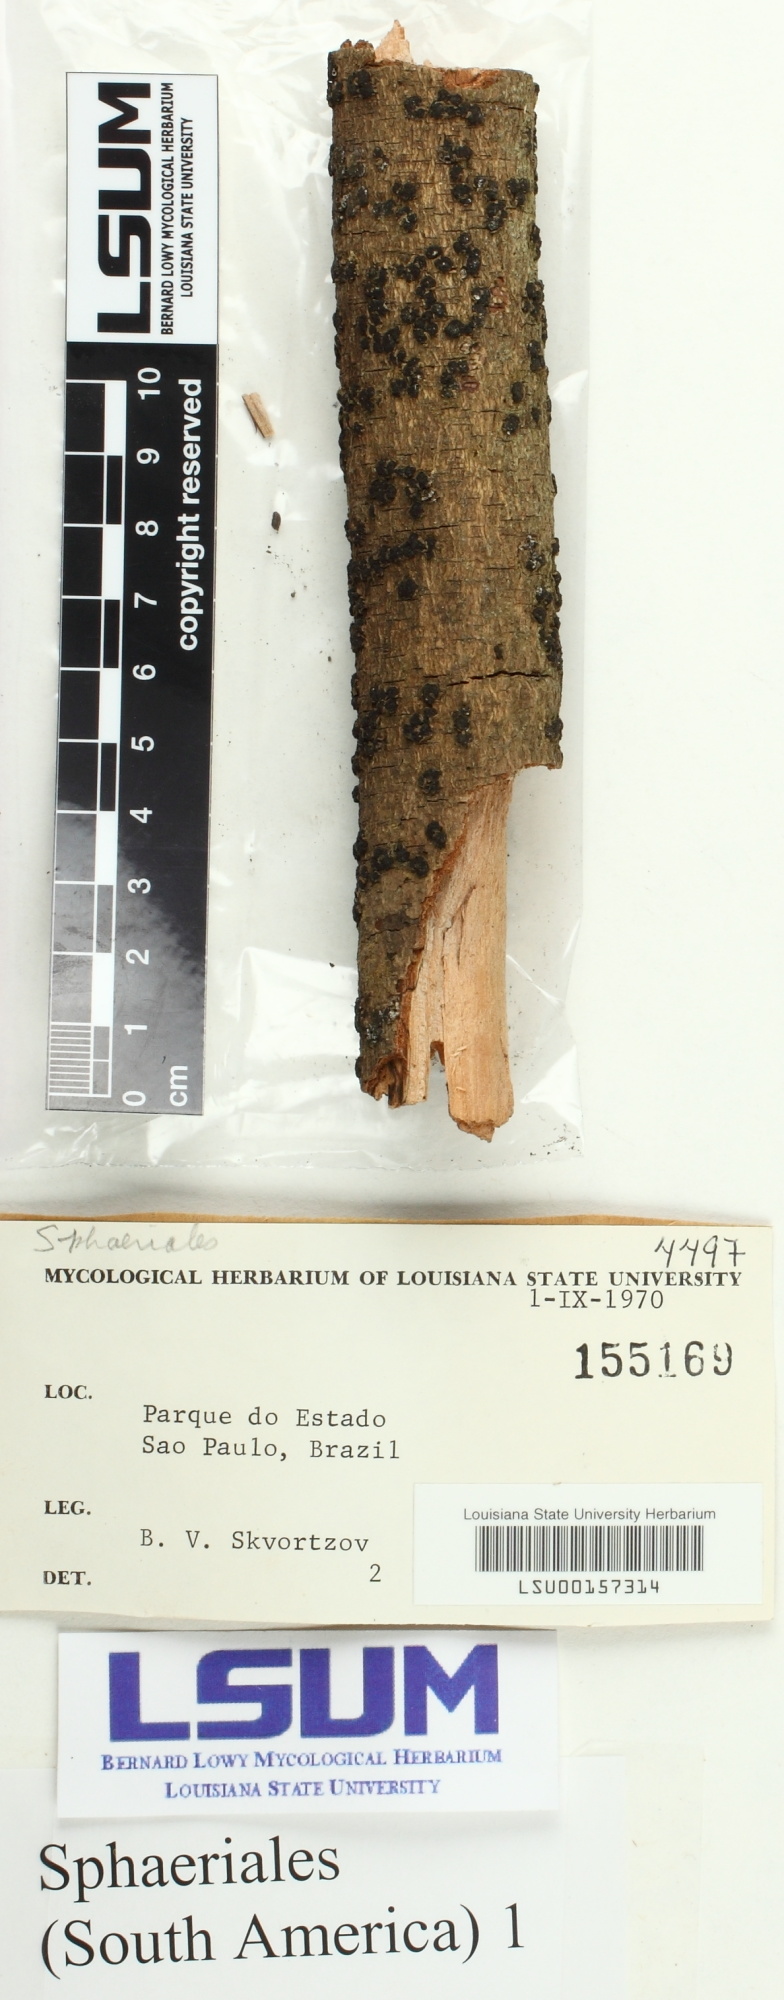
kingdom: Fungi
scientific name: Fungi
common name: Fungi
